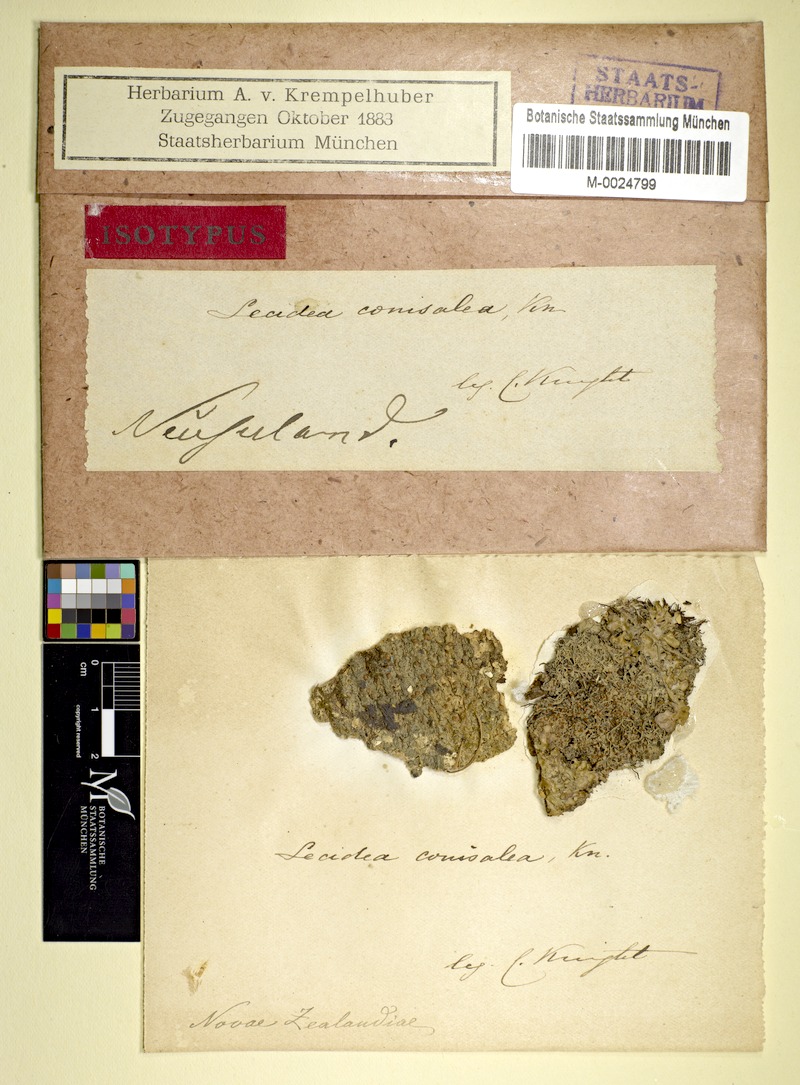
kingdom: Fungi
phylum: Ascomycota
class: Lecanoromycetes
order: Lecanorales
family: Ramalinaceae
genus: Biatora
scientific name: Biatora
